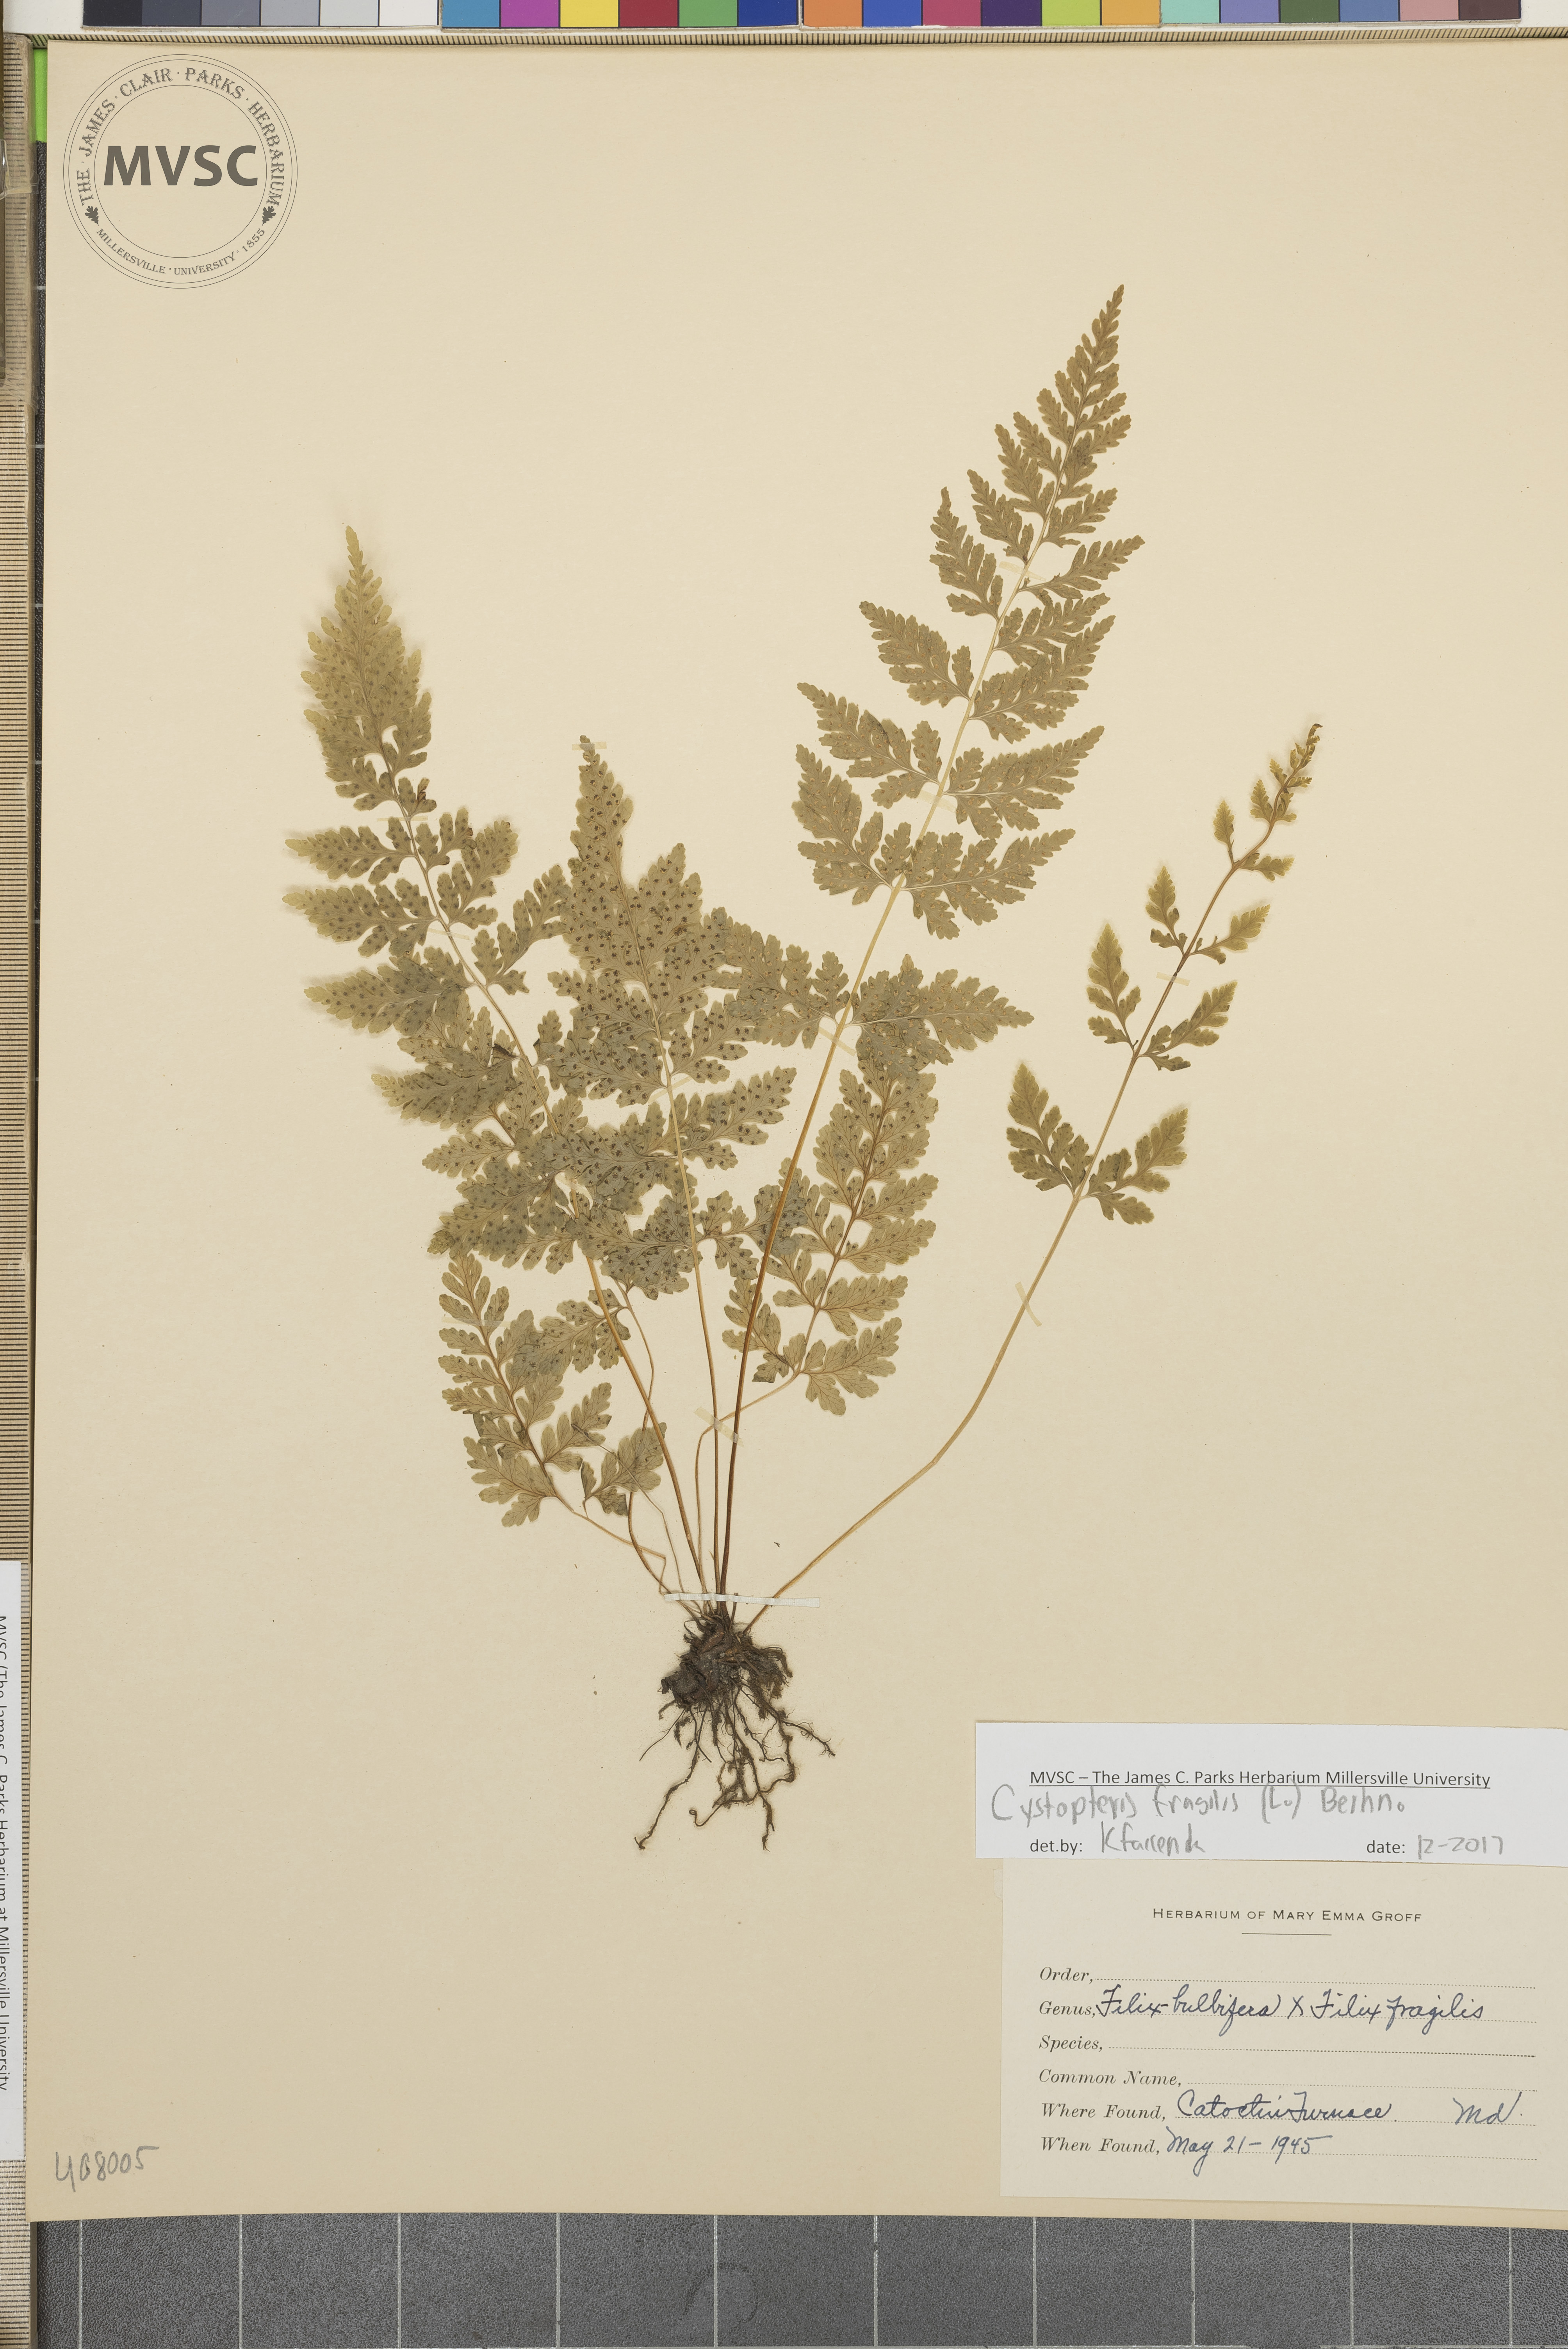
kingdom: Plantae
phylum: Tracheophyta
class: Polypodiopsida
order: Polypodiales
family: Cystopteridaceae
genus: Cystopteris
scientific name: Cystopteris fragilis
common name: Brittle bladder fern
